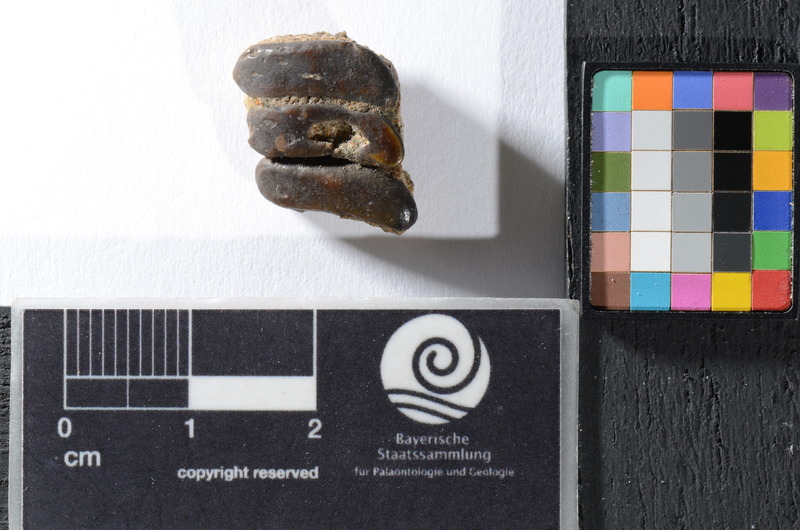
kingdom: Animalia
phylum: Chordata
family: Pycnodontidae
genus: Anomoeodus
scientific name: Anomoeodus
